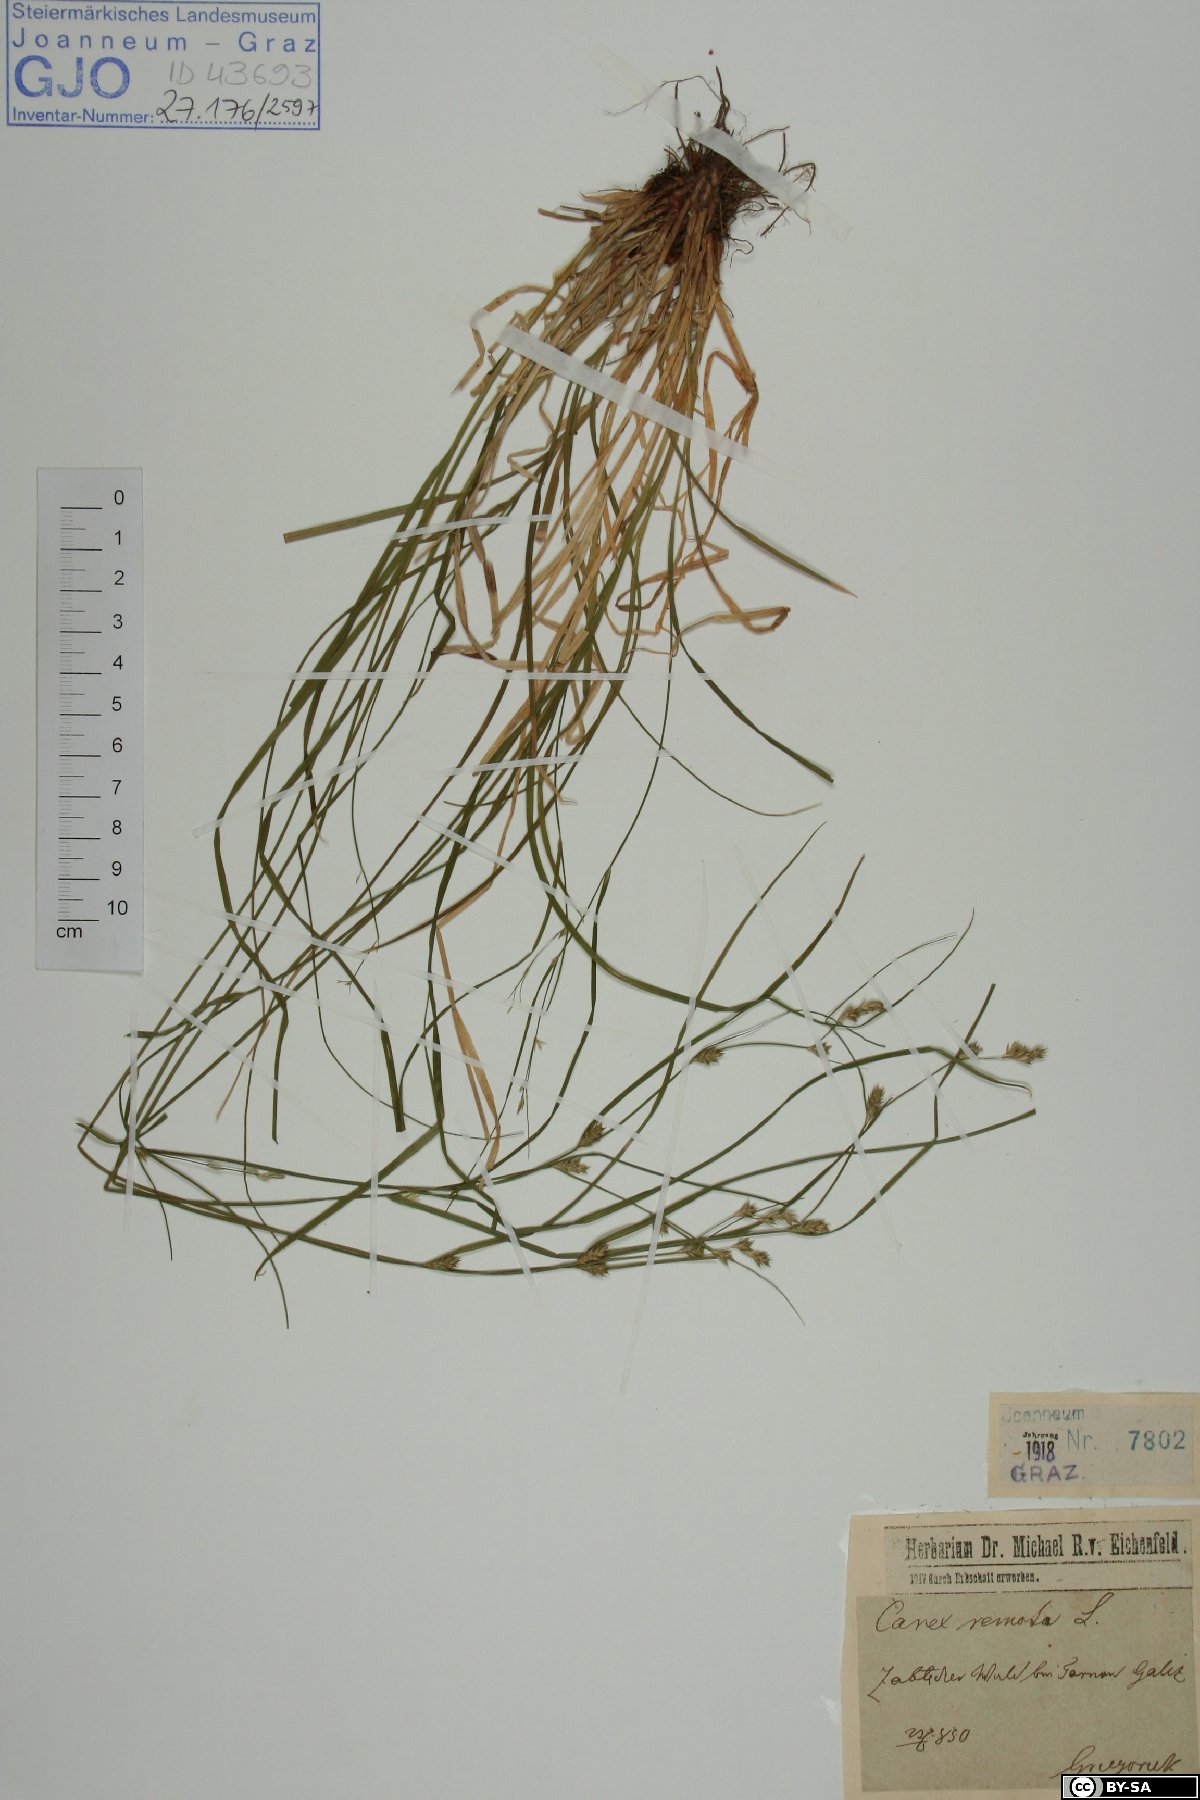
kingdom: Plantae
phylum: Tracheophyta
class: Liliopsida
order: Poales
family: Cyperaceae
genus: Carex
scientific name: Carex remota
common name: Remote sedge
